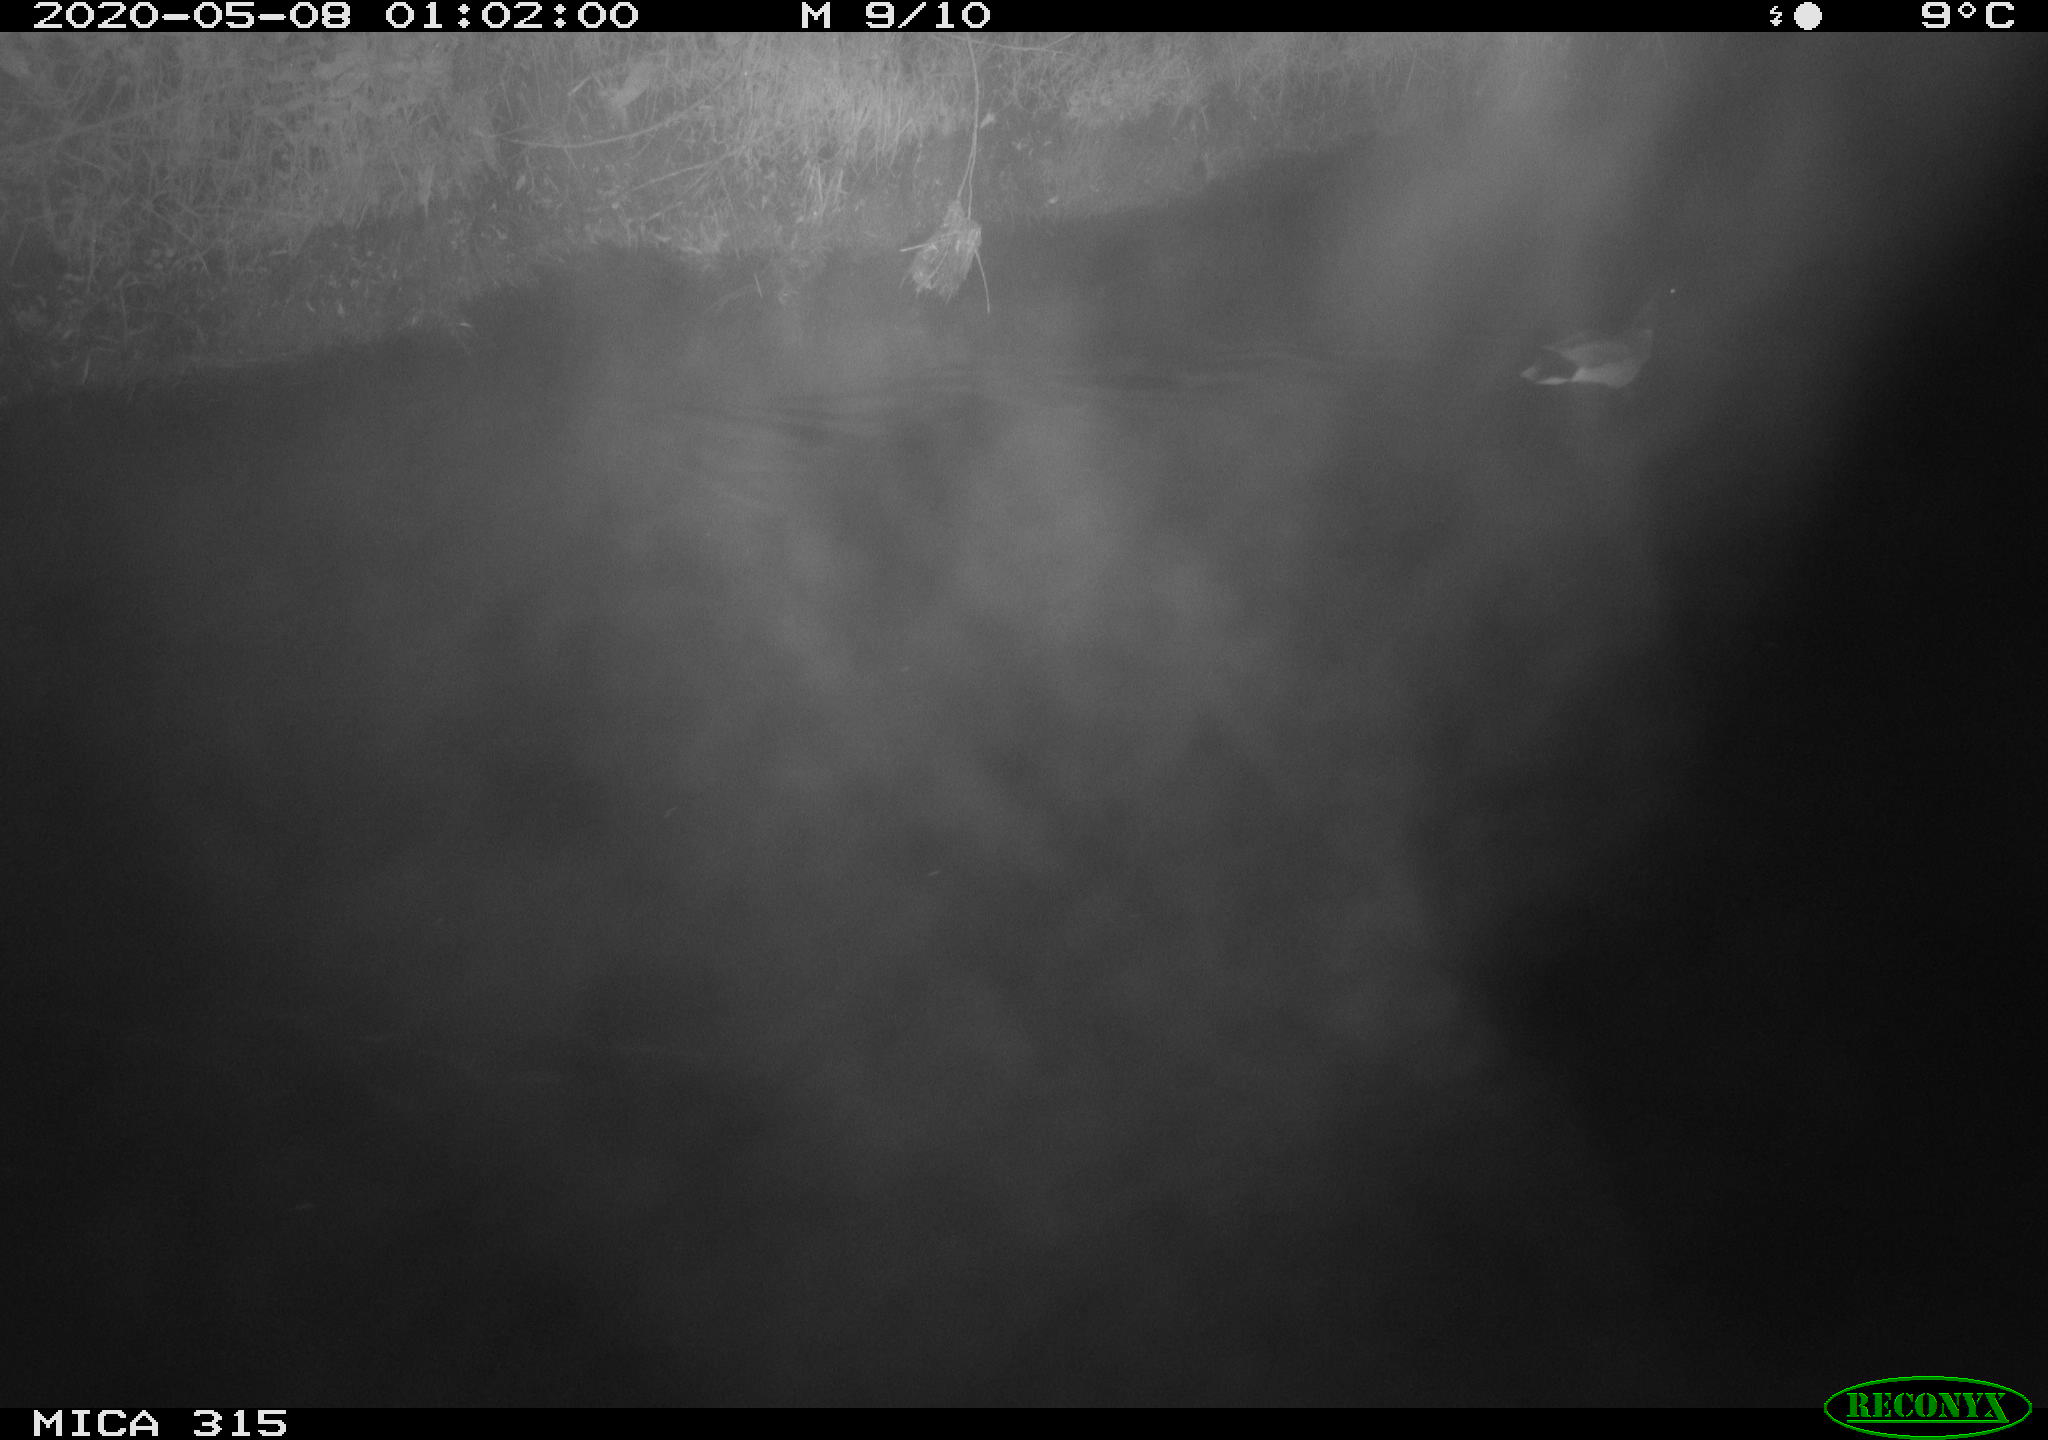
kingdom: Animalia
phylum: Chordata
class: Aves
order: Anseriformes
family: Anatidae
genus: Anas
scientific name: Anas platyrhynchos
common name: Mallard
